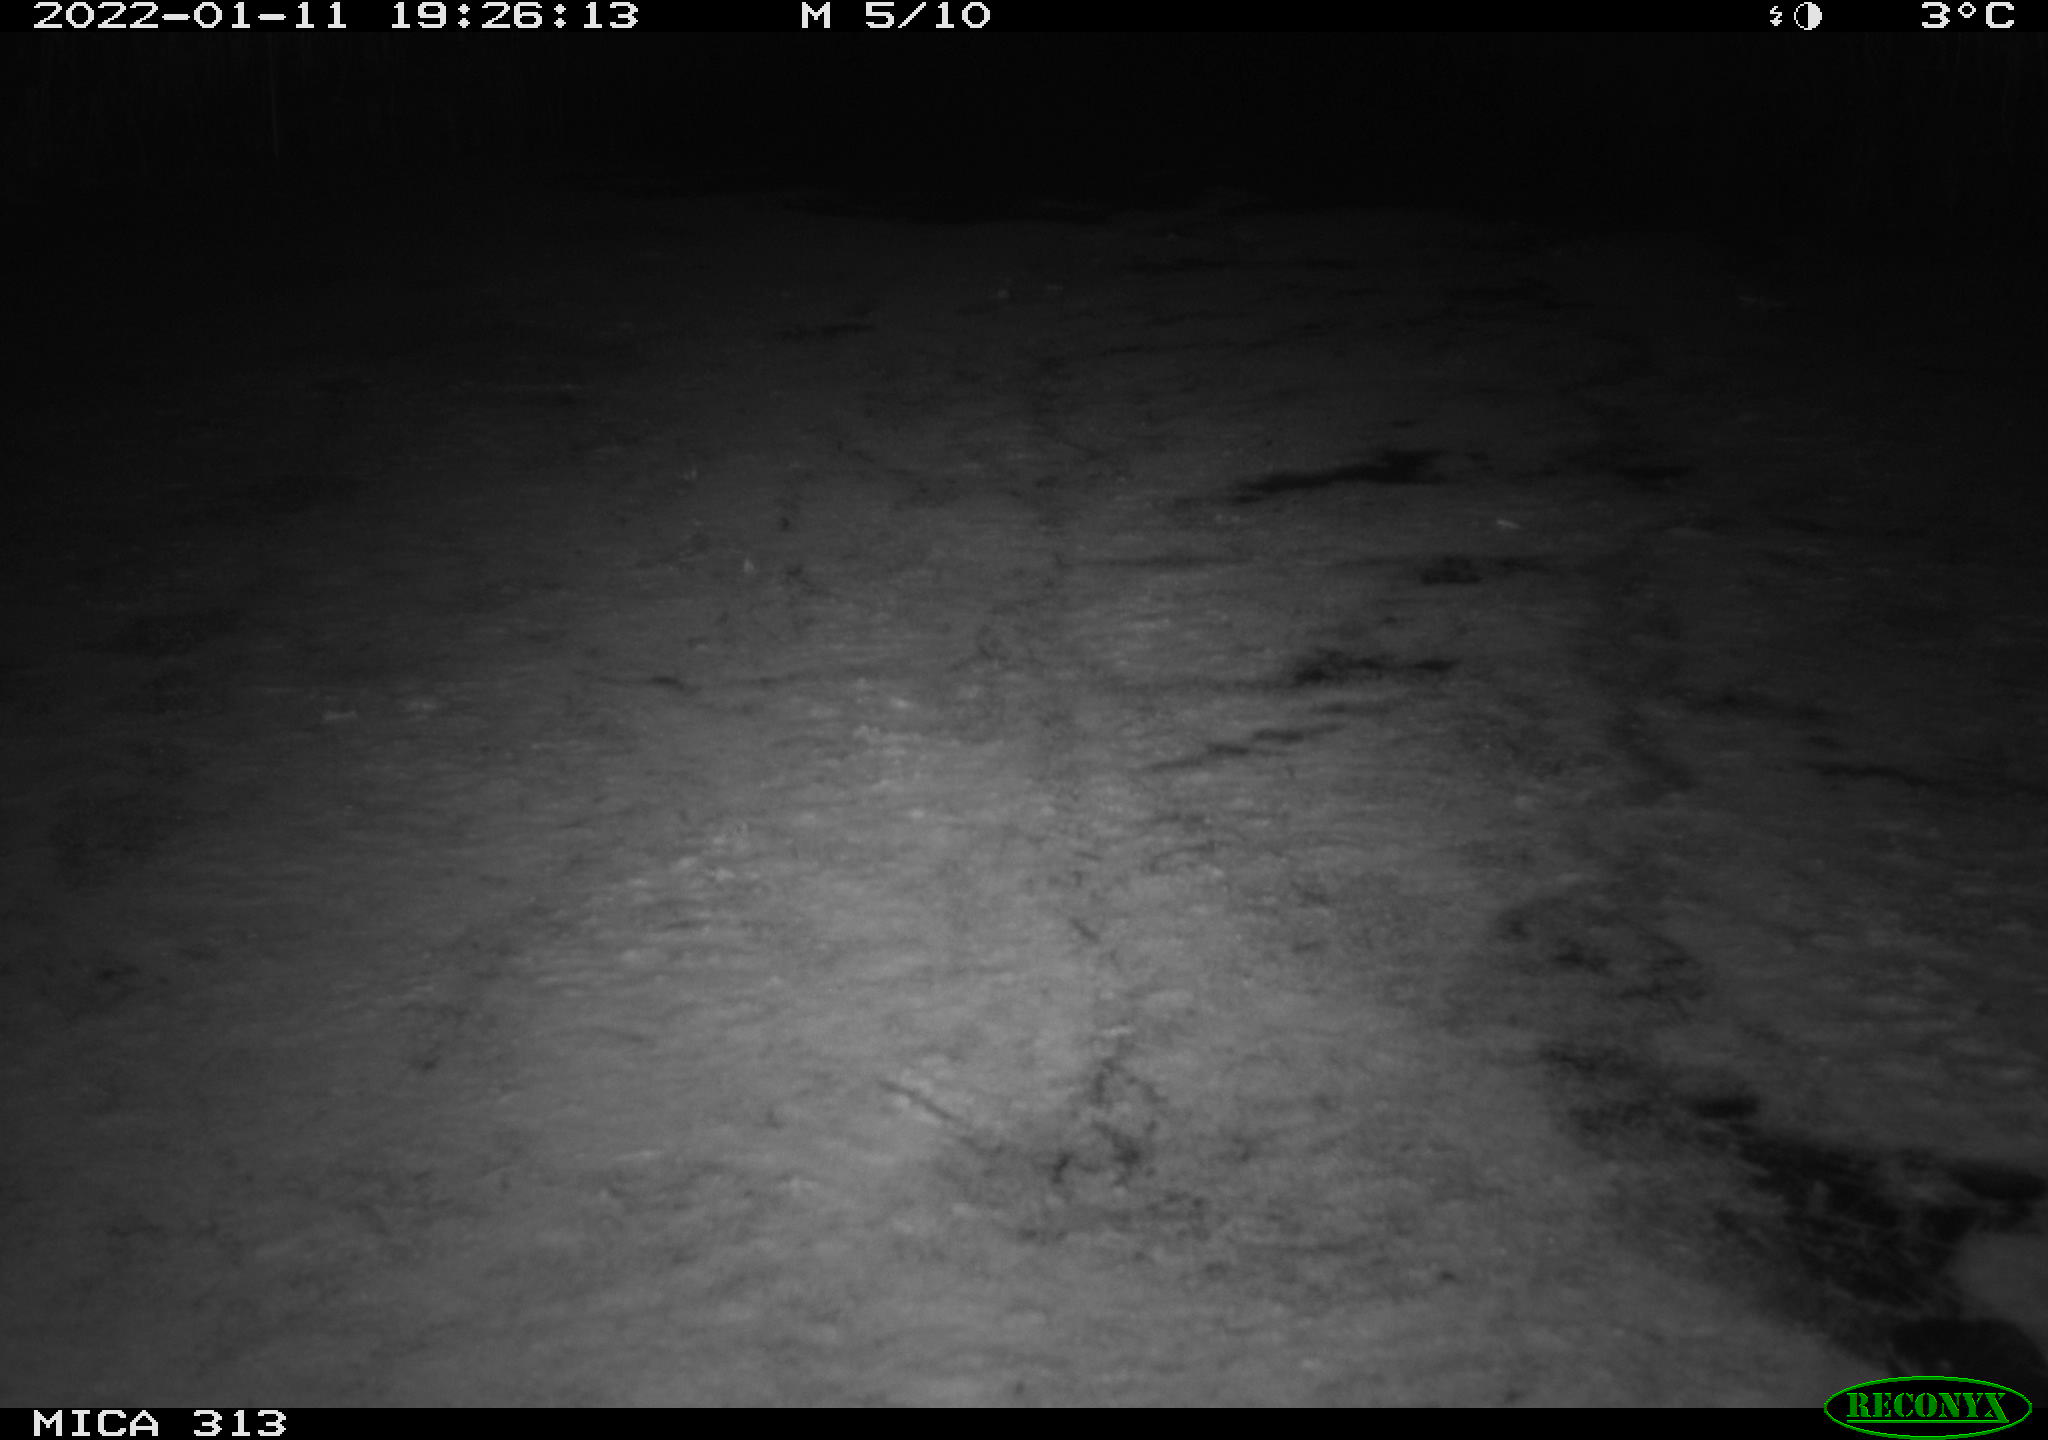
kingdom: Animalia
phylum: Chordata
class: Aves
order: Gruiformes
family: Rallidae
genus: Gallinula
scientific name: Gallinula chloropus
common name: Common moorhen
